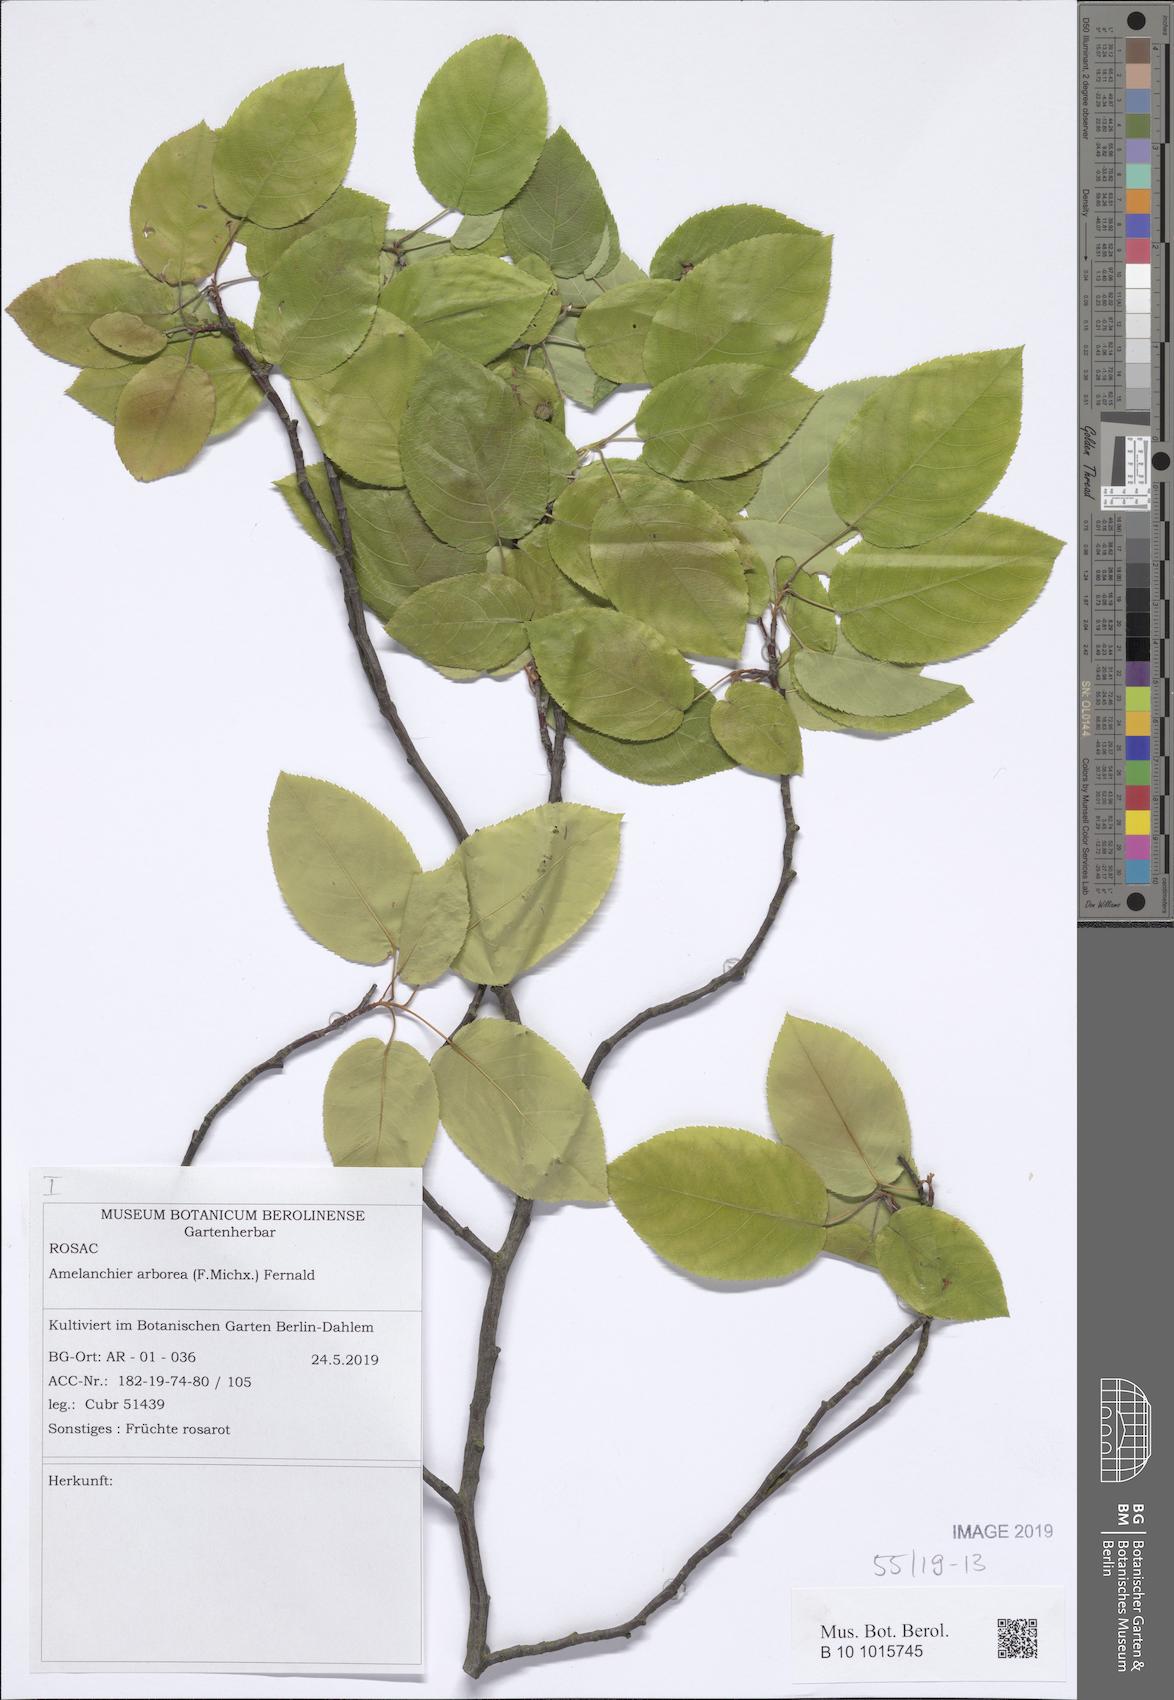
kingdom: Plantae
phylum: Tracheophyta
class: Magnoliopsida
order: Rosales
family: Rosaceae
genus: Amelanchier
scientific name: Amelanchier arborea
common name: Downy serviceberry
